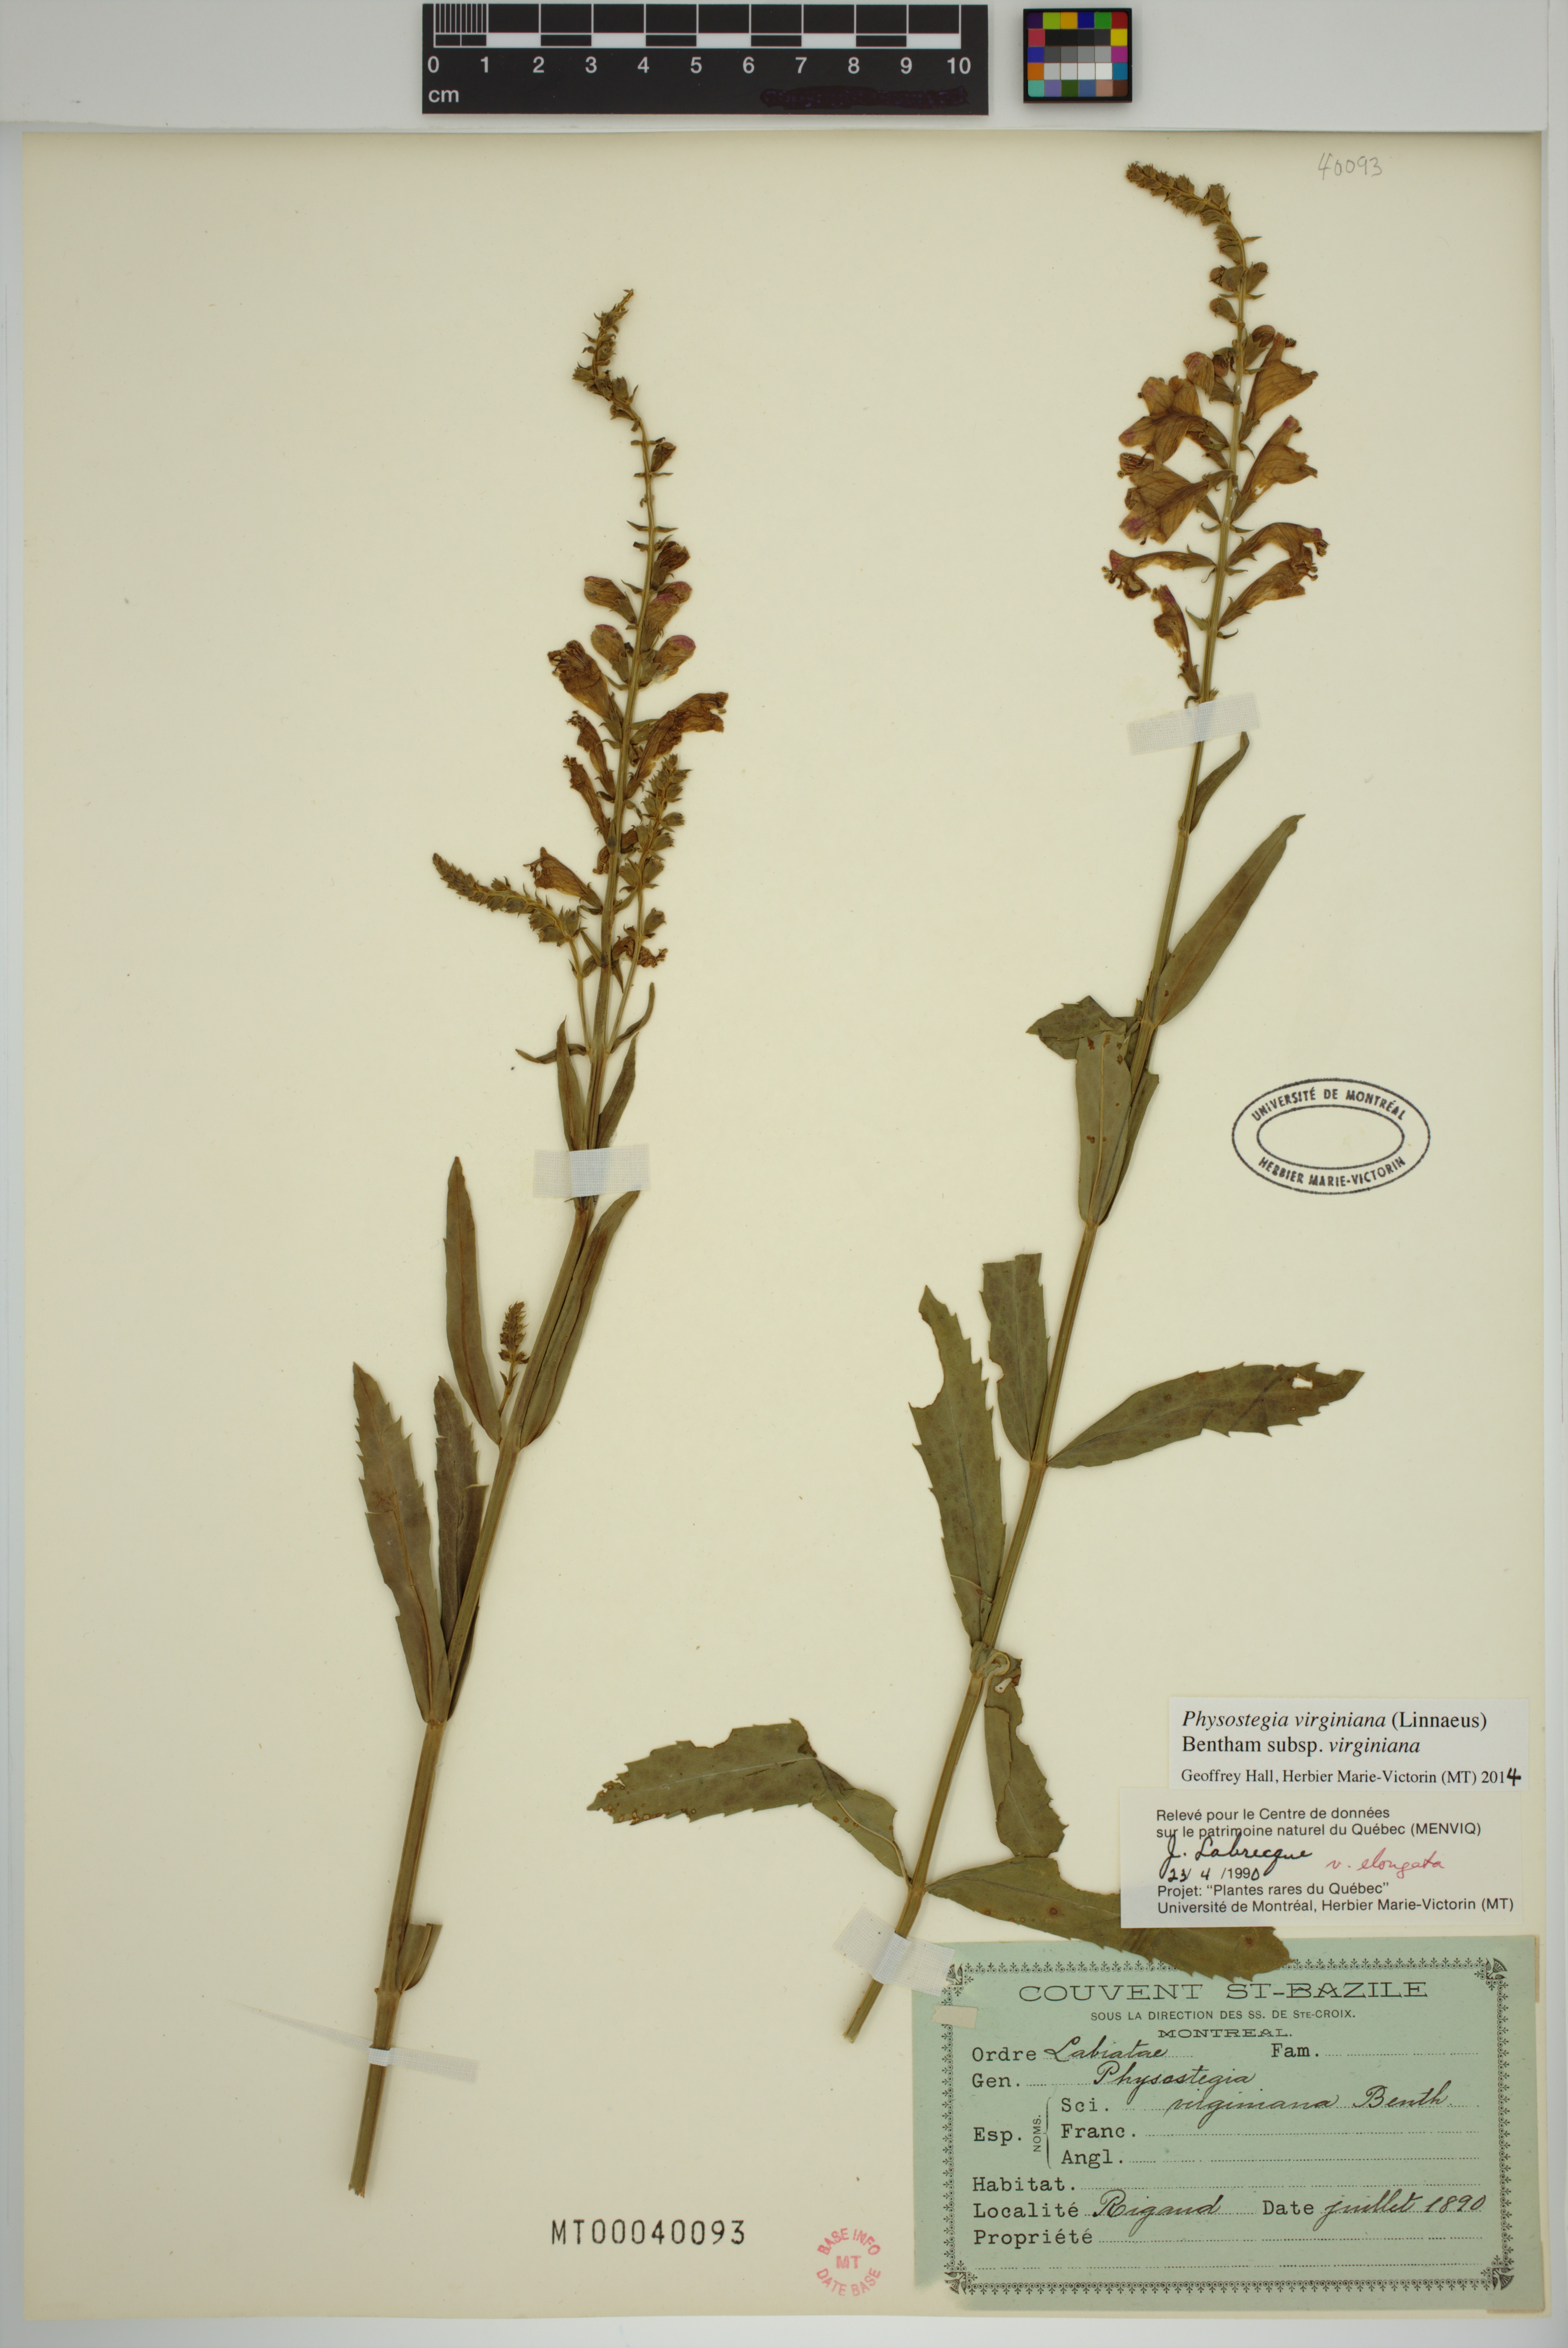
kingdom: Plantae
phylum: Tracheophyta
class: Magnoliopsida
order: Lamiales
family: Lamiaceae
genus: Physostegia
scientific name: Physostegia virginiana
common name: Obedient-plant
